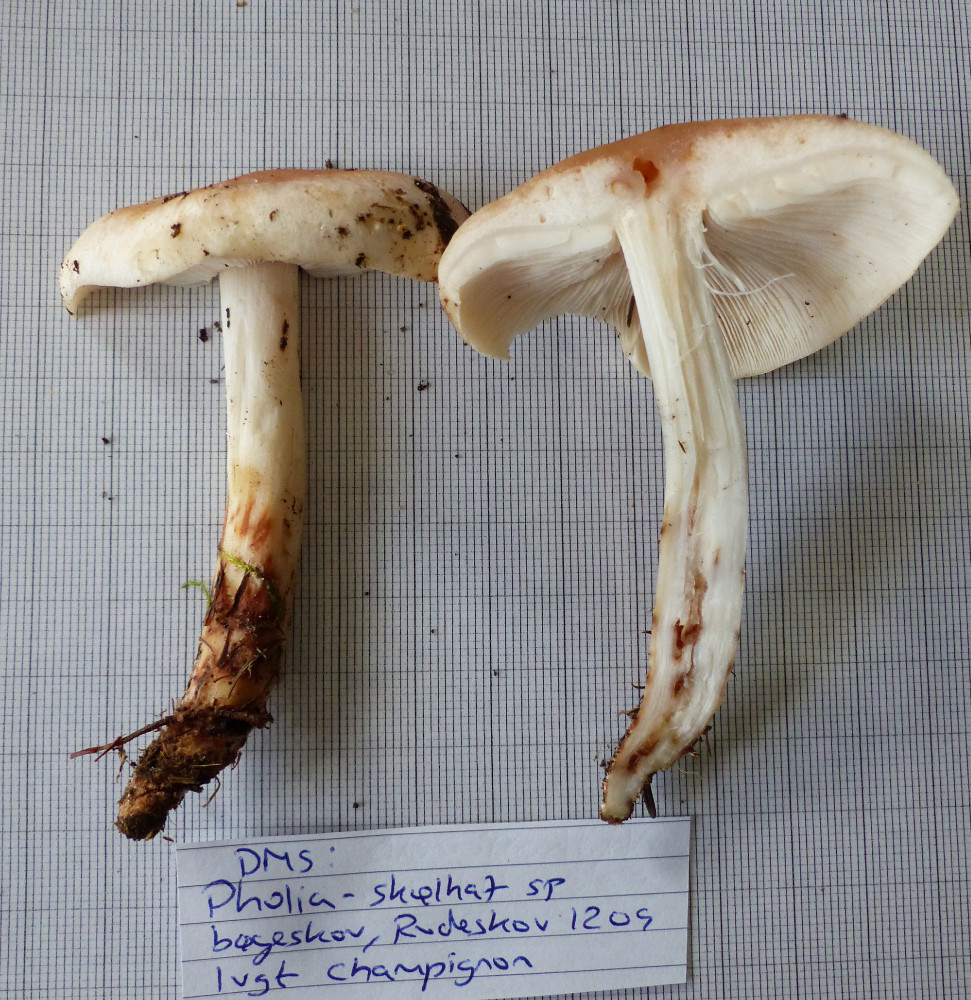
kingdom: Fungi
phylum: Basidiomycota
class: Agaricomycetes
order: Agaricales
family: Omphalotaceae
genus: Rhodocollybia
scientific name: Rhodocollybia maculata
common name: plettet fladhat
